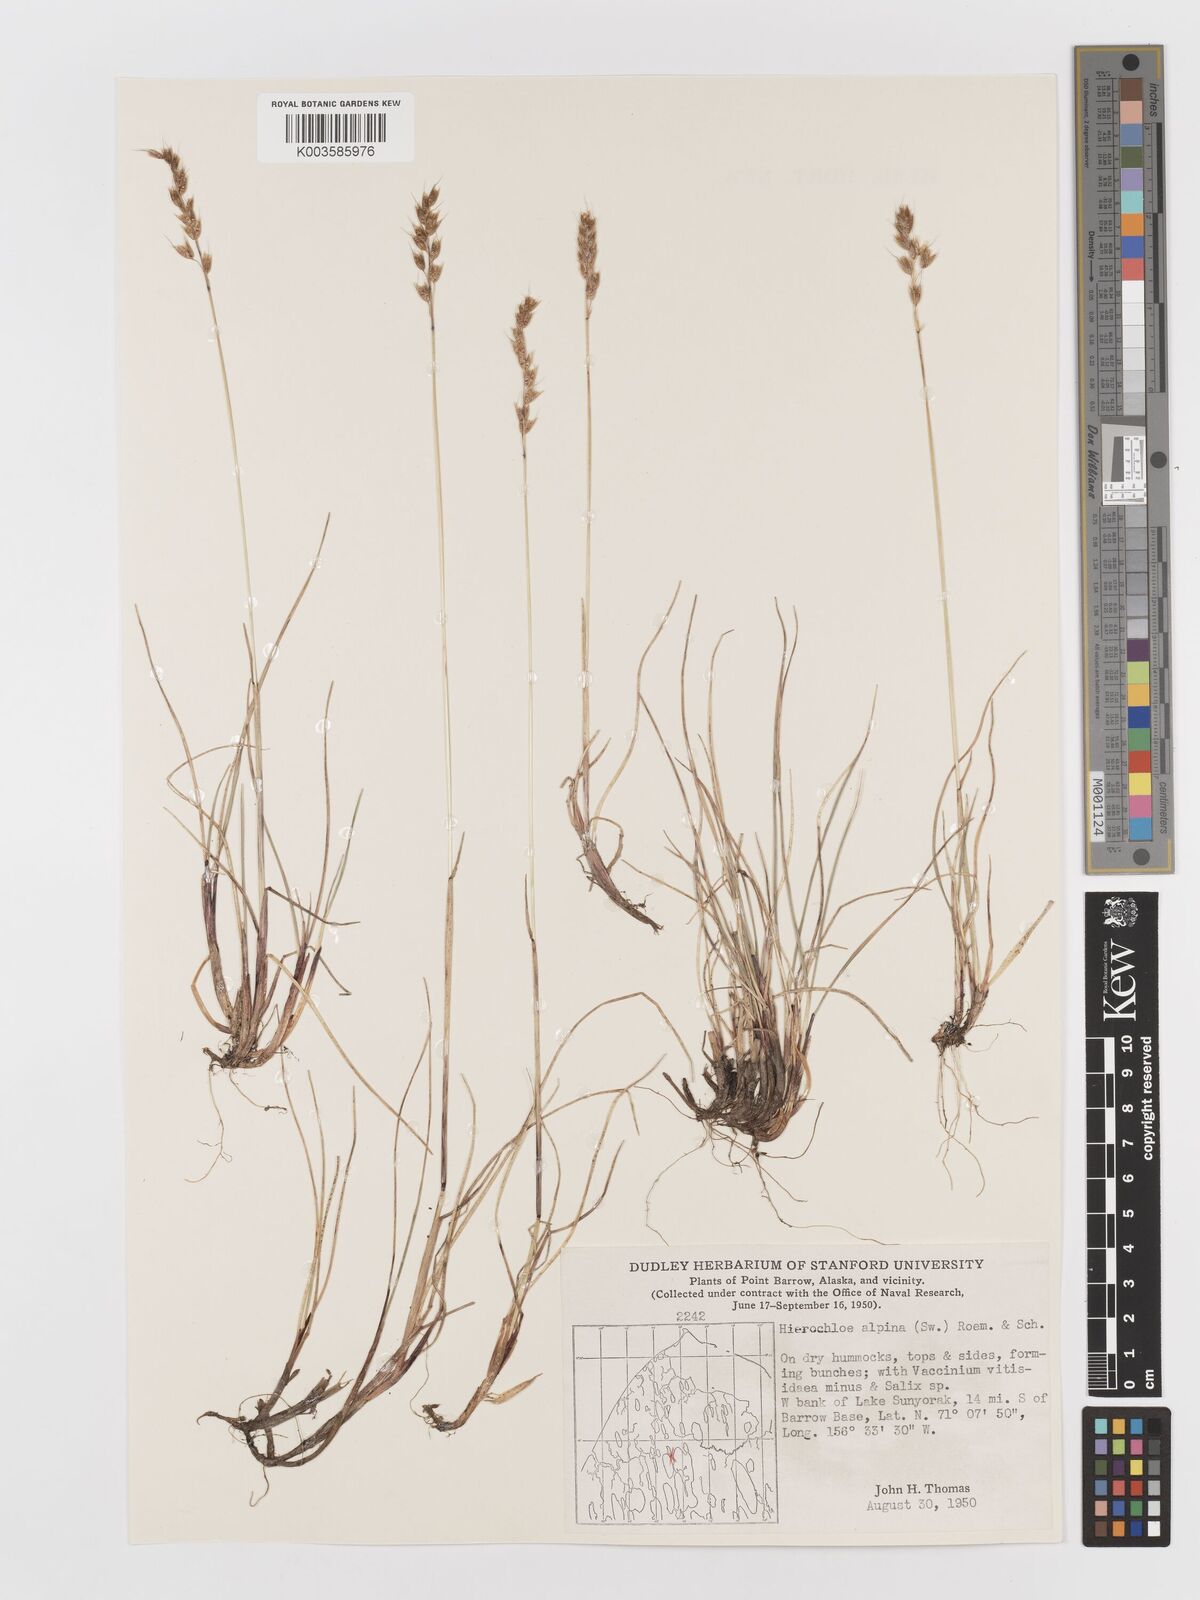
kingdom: Plantae
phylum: Tracheophyta
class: Liliopsida
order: Poales
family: Poaceae
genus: Anthoxanthum
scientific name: Anthoxanthum monticola
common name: Alpine sweetgrass
